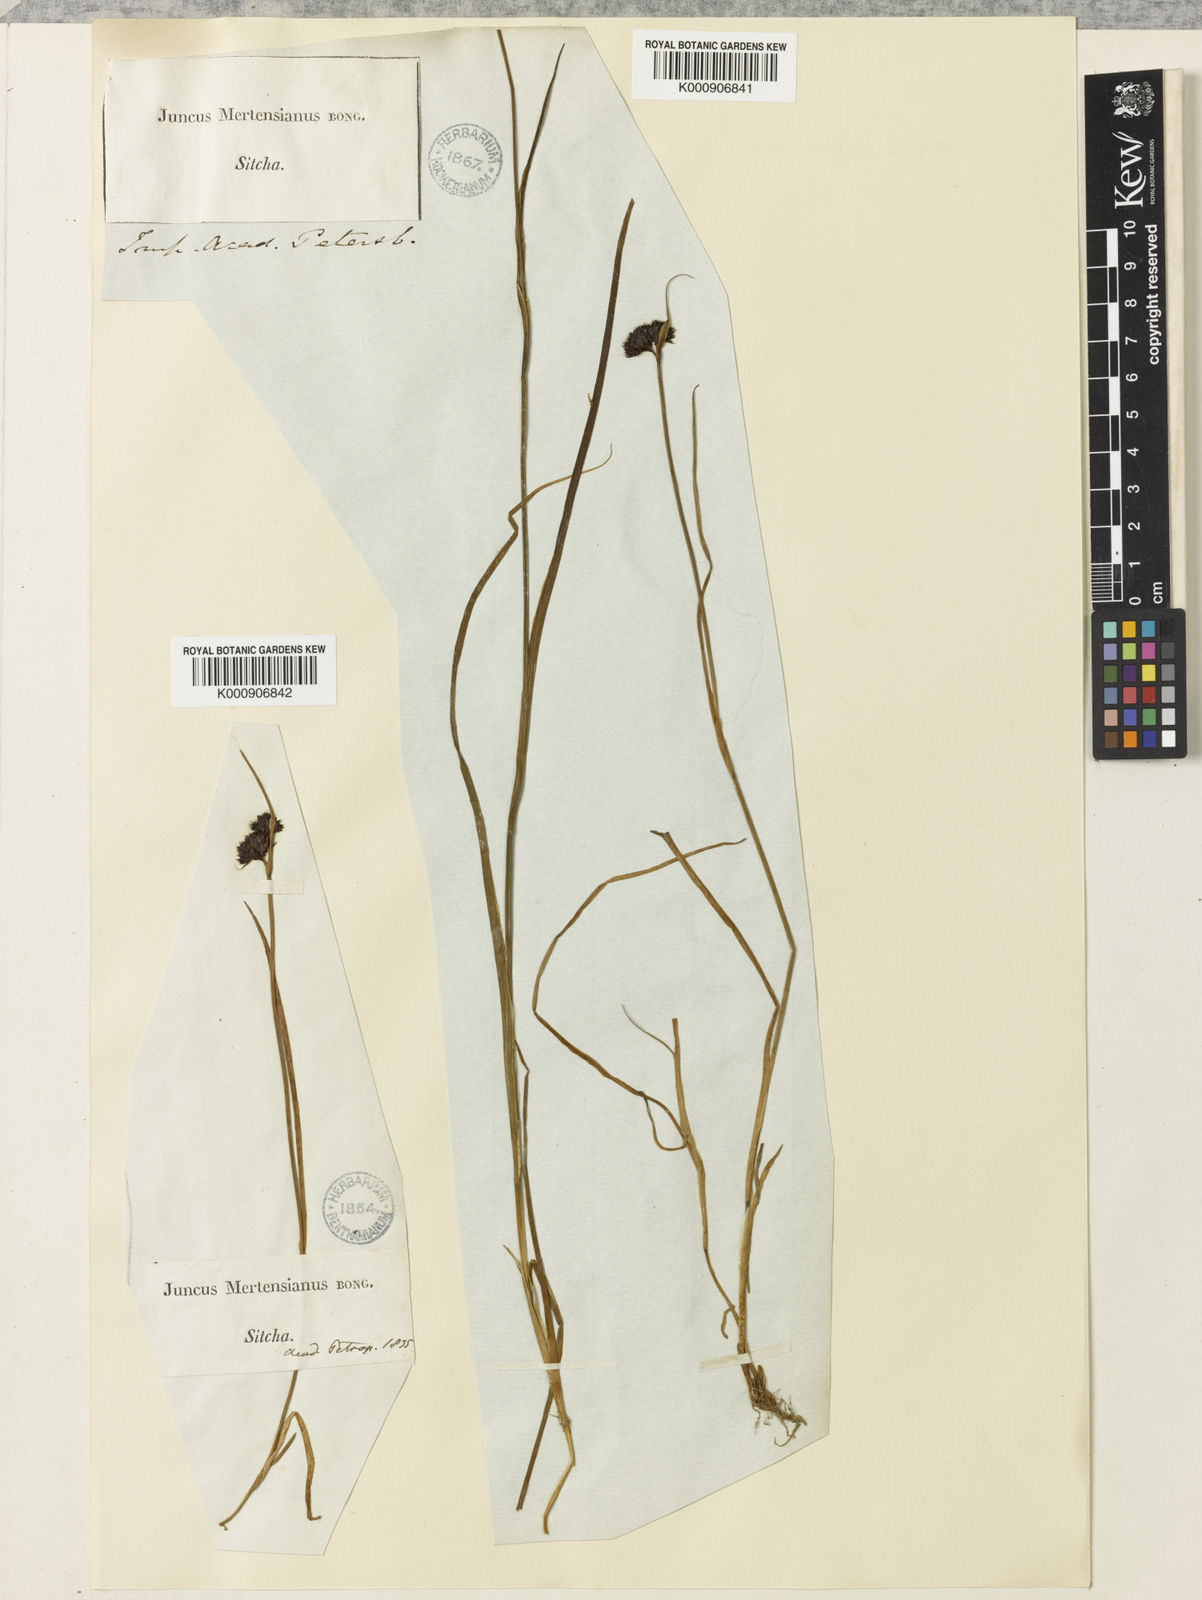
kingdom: Plantae
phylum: Tracheophyta
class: Liliopsida
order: Poales
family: Juncaceae
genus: Juncus
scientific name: Juncus mertensianus
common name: Merten's rush
